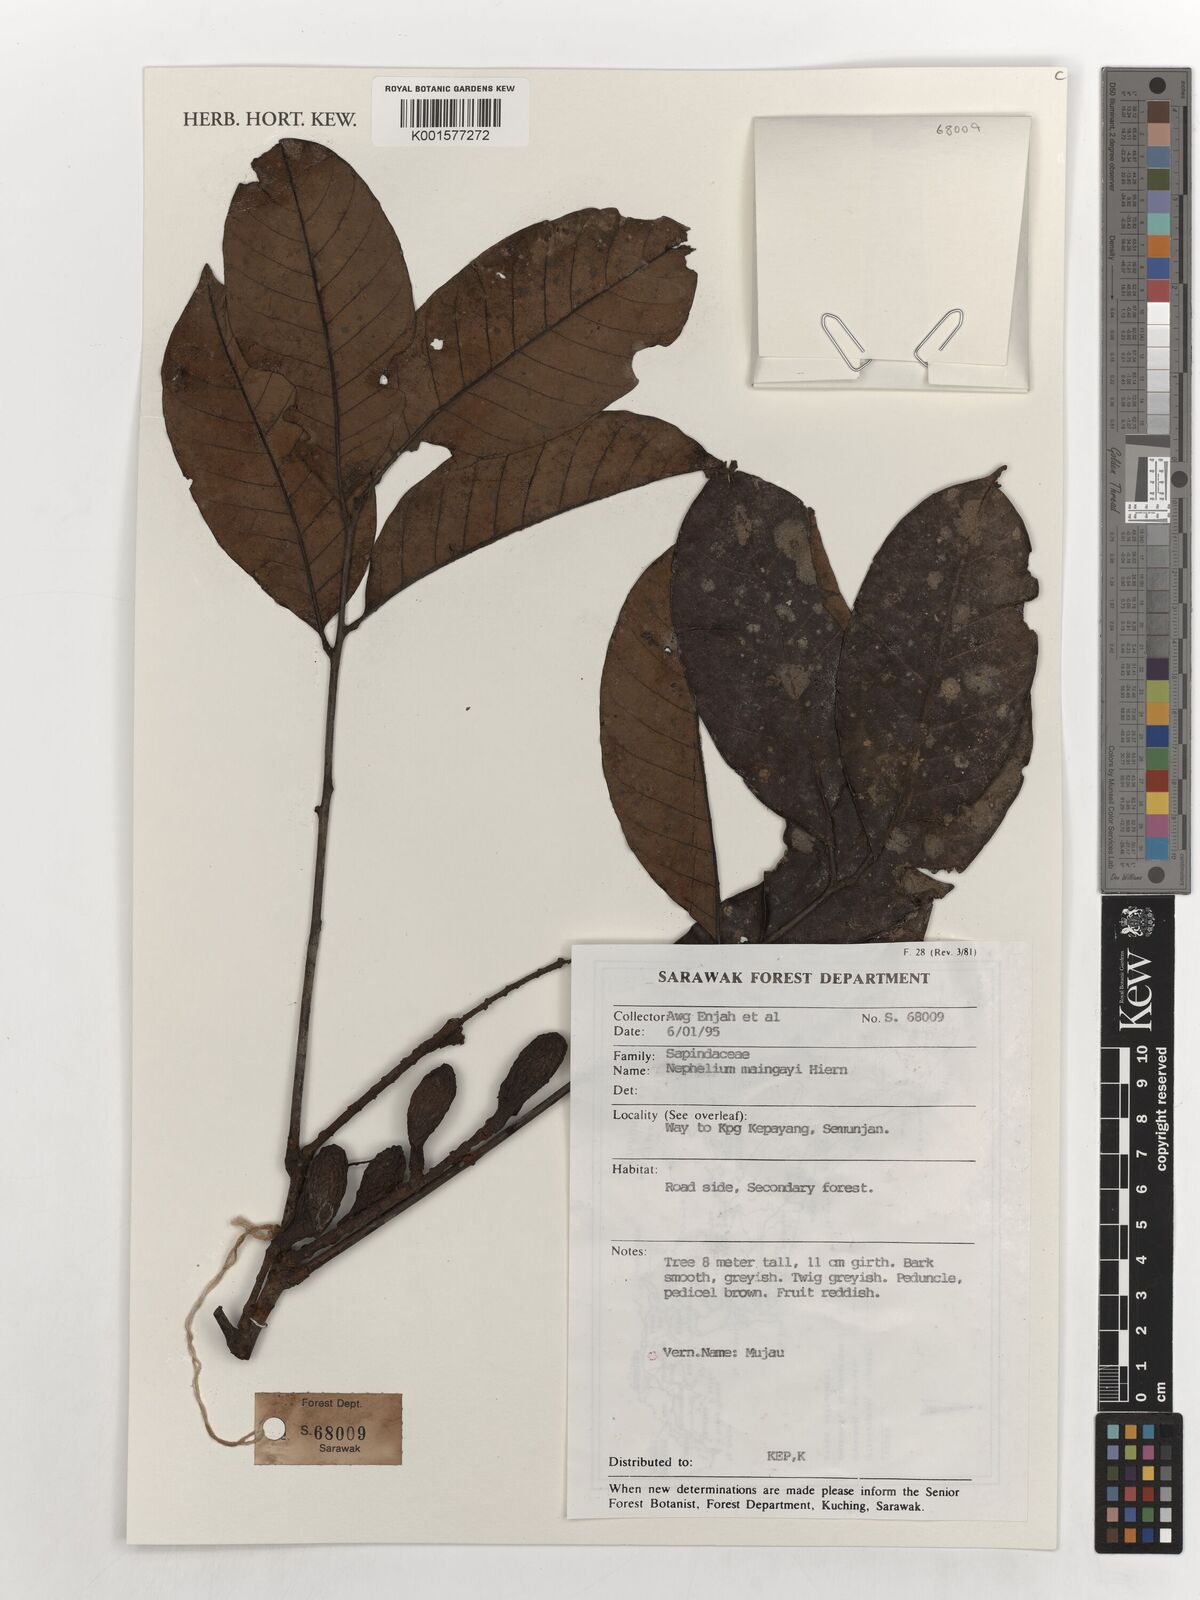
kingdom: Plantae
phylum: Tracheophyta
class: Magnoliopsida
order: Sapindales
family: Sapindaceae
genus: Nephelium
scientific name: Nephelium maingayi
